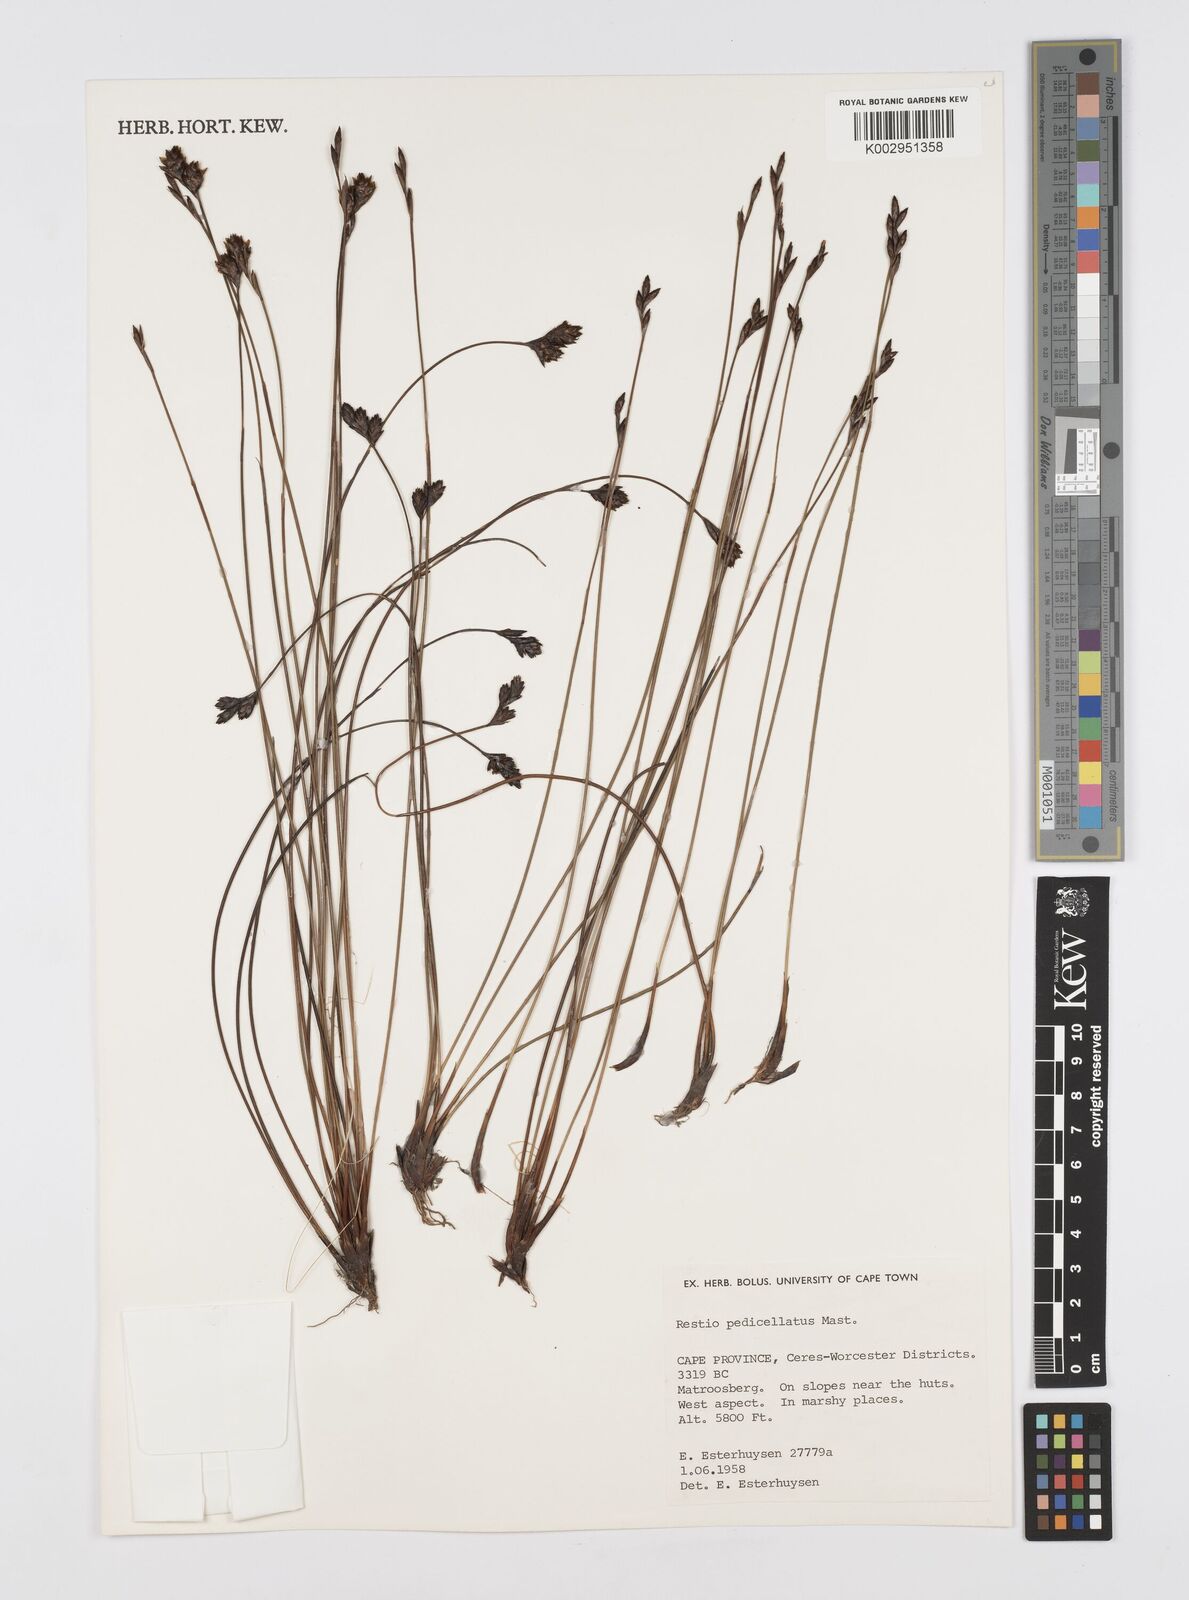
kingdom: Plantae
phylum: Tracheophyta
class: Liliopsida
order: Poales
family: Restionaceae
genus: Restio
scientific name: Restio pedicellatus
